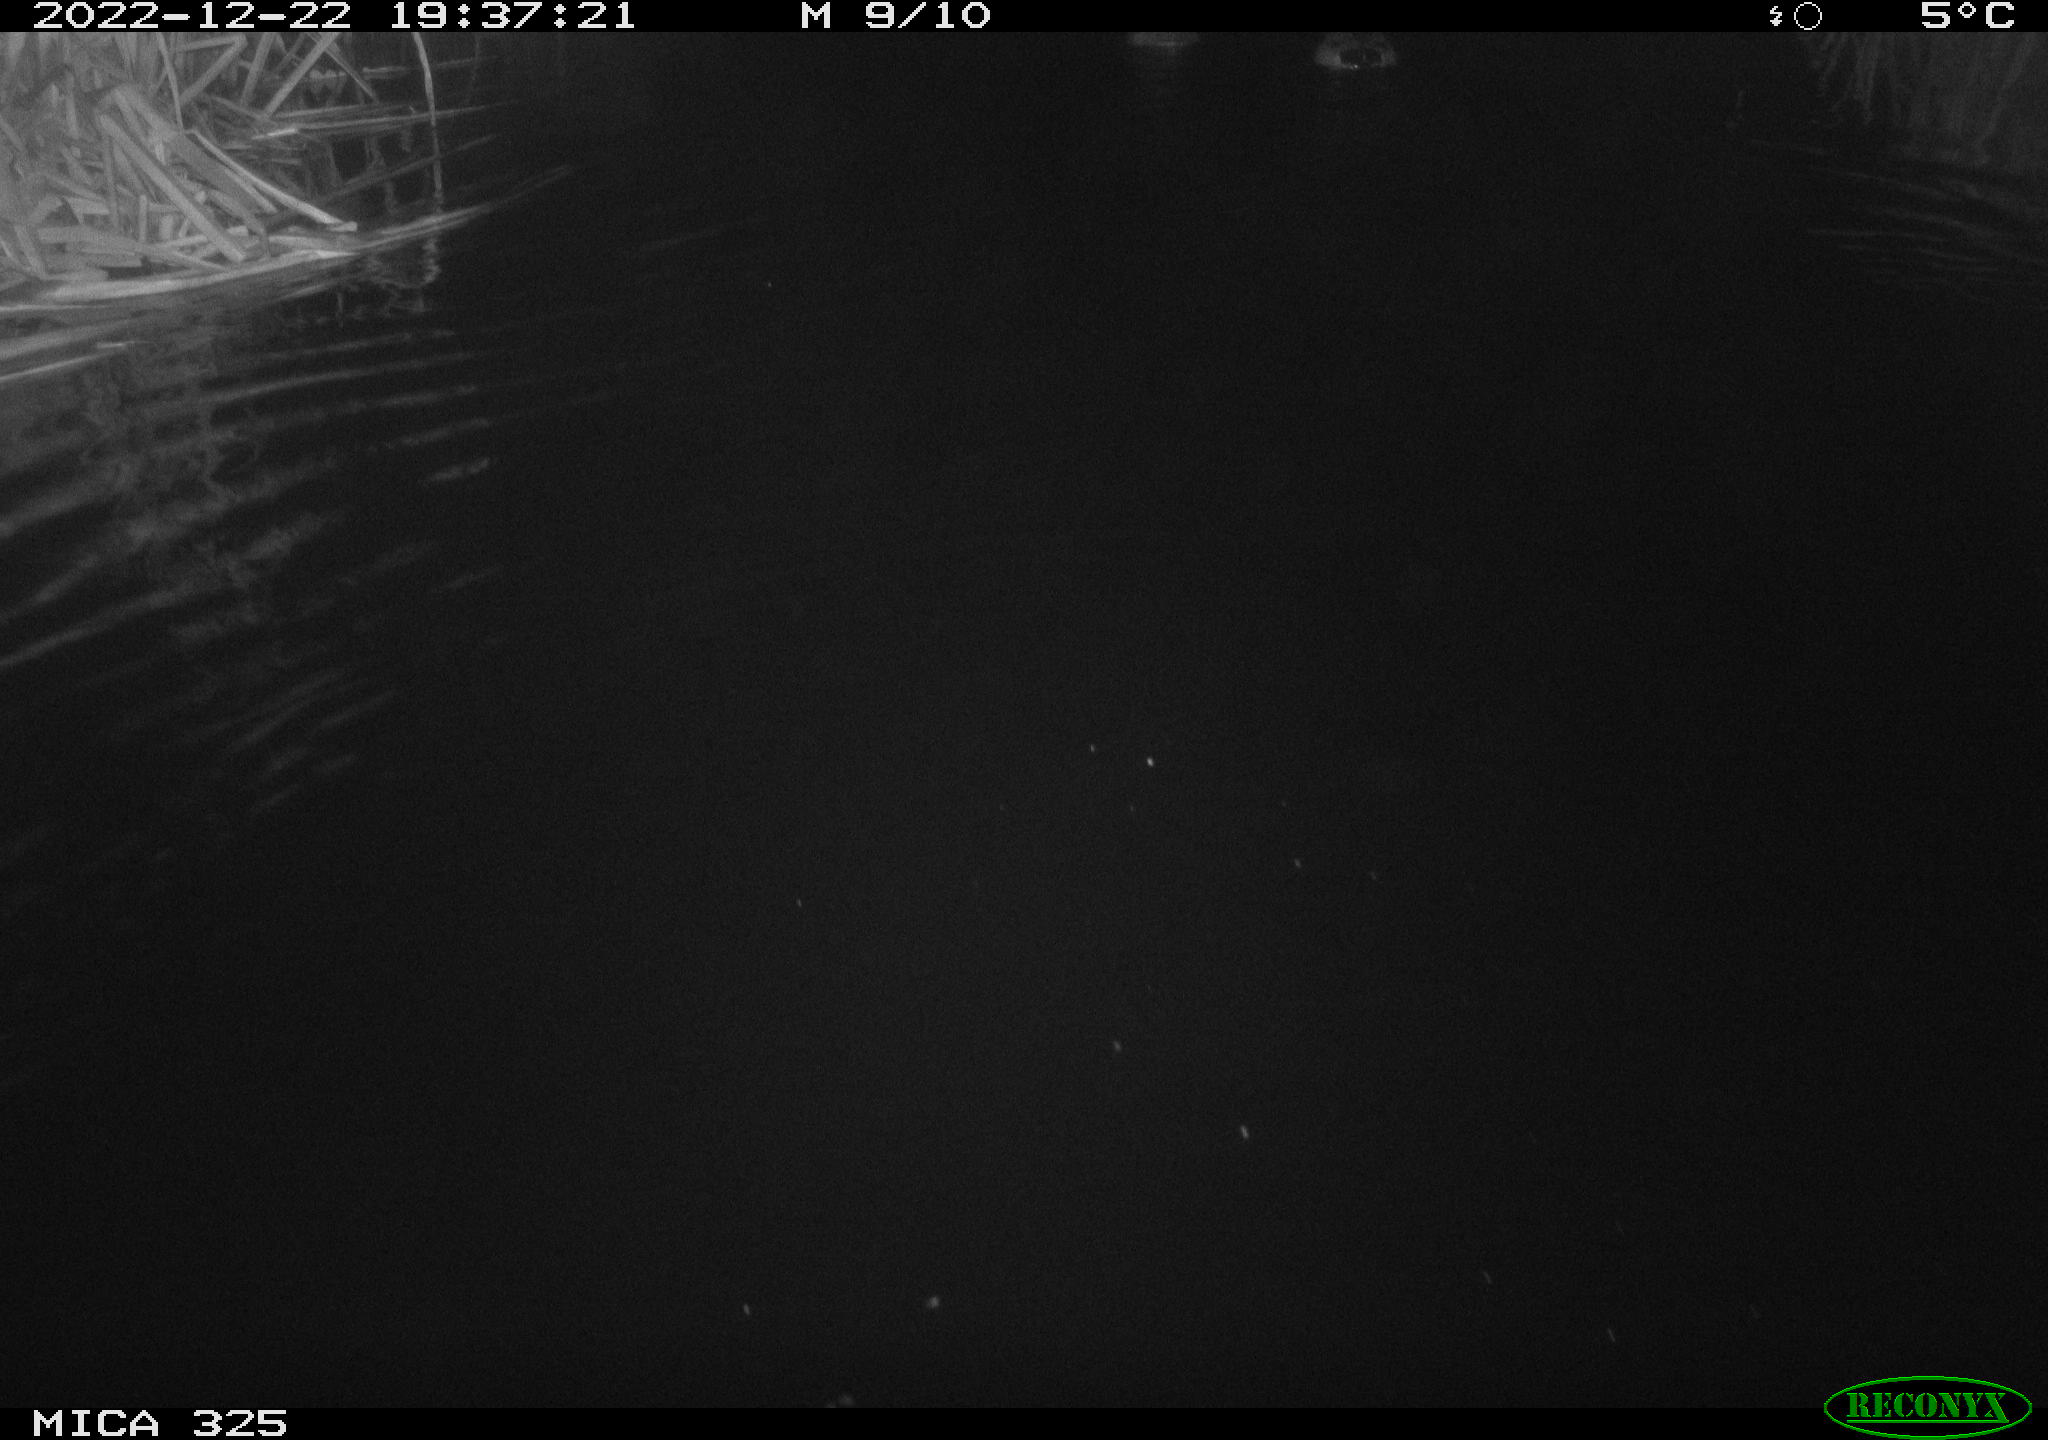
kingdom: Animalia
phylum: Chordata
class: Aves
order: Anseriformes
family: Anatidae
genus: Anas
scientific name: Anas
